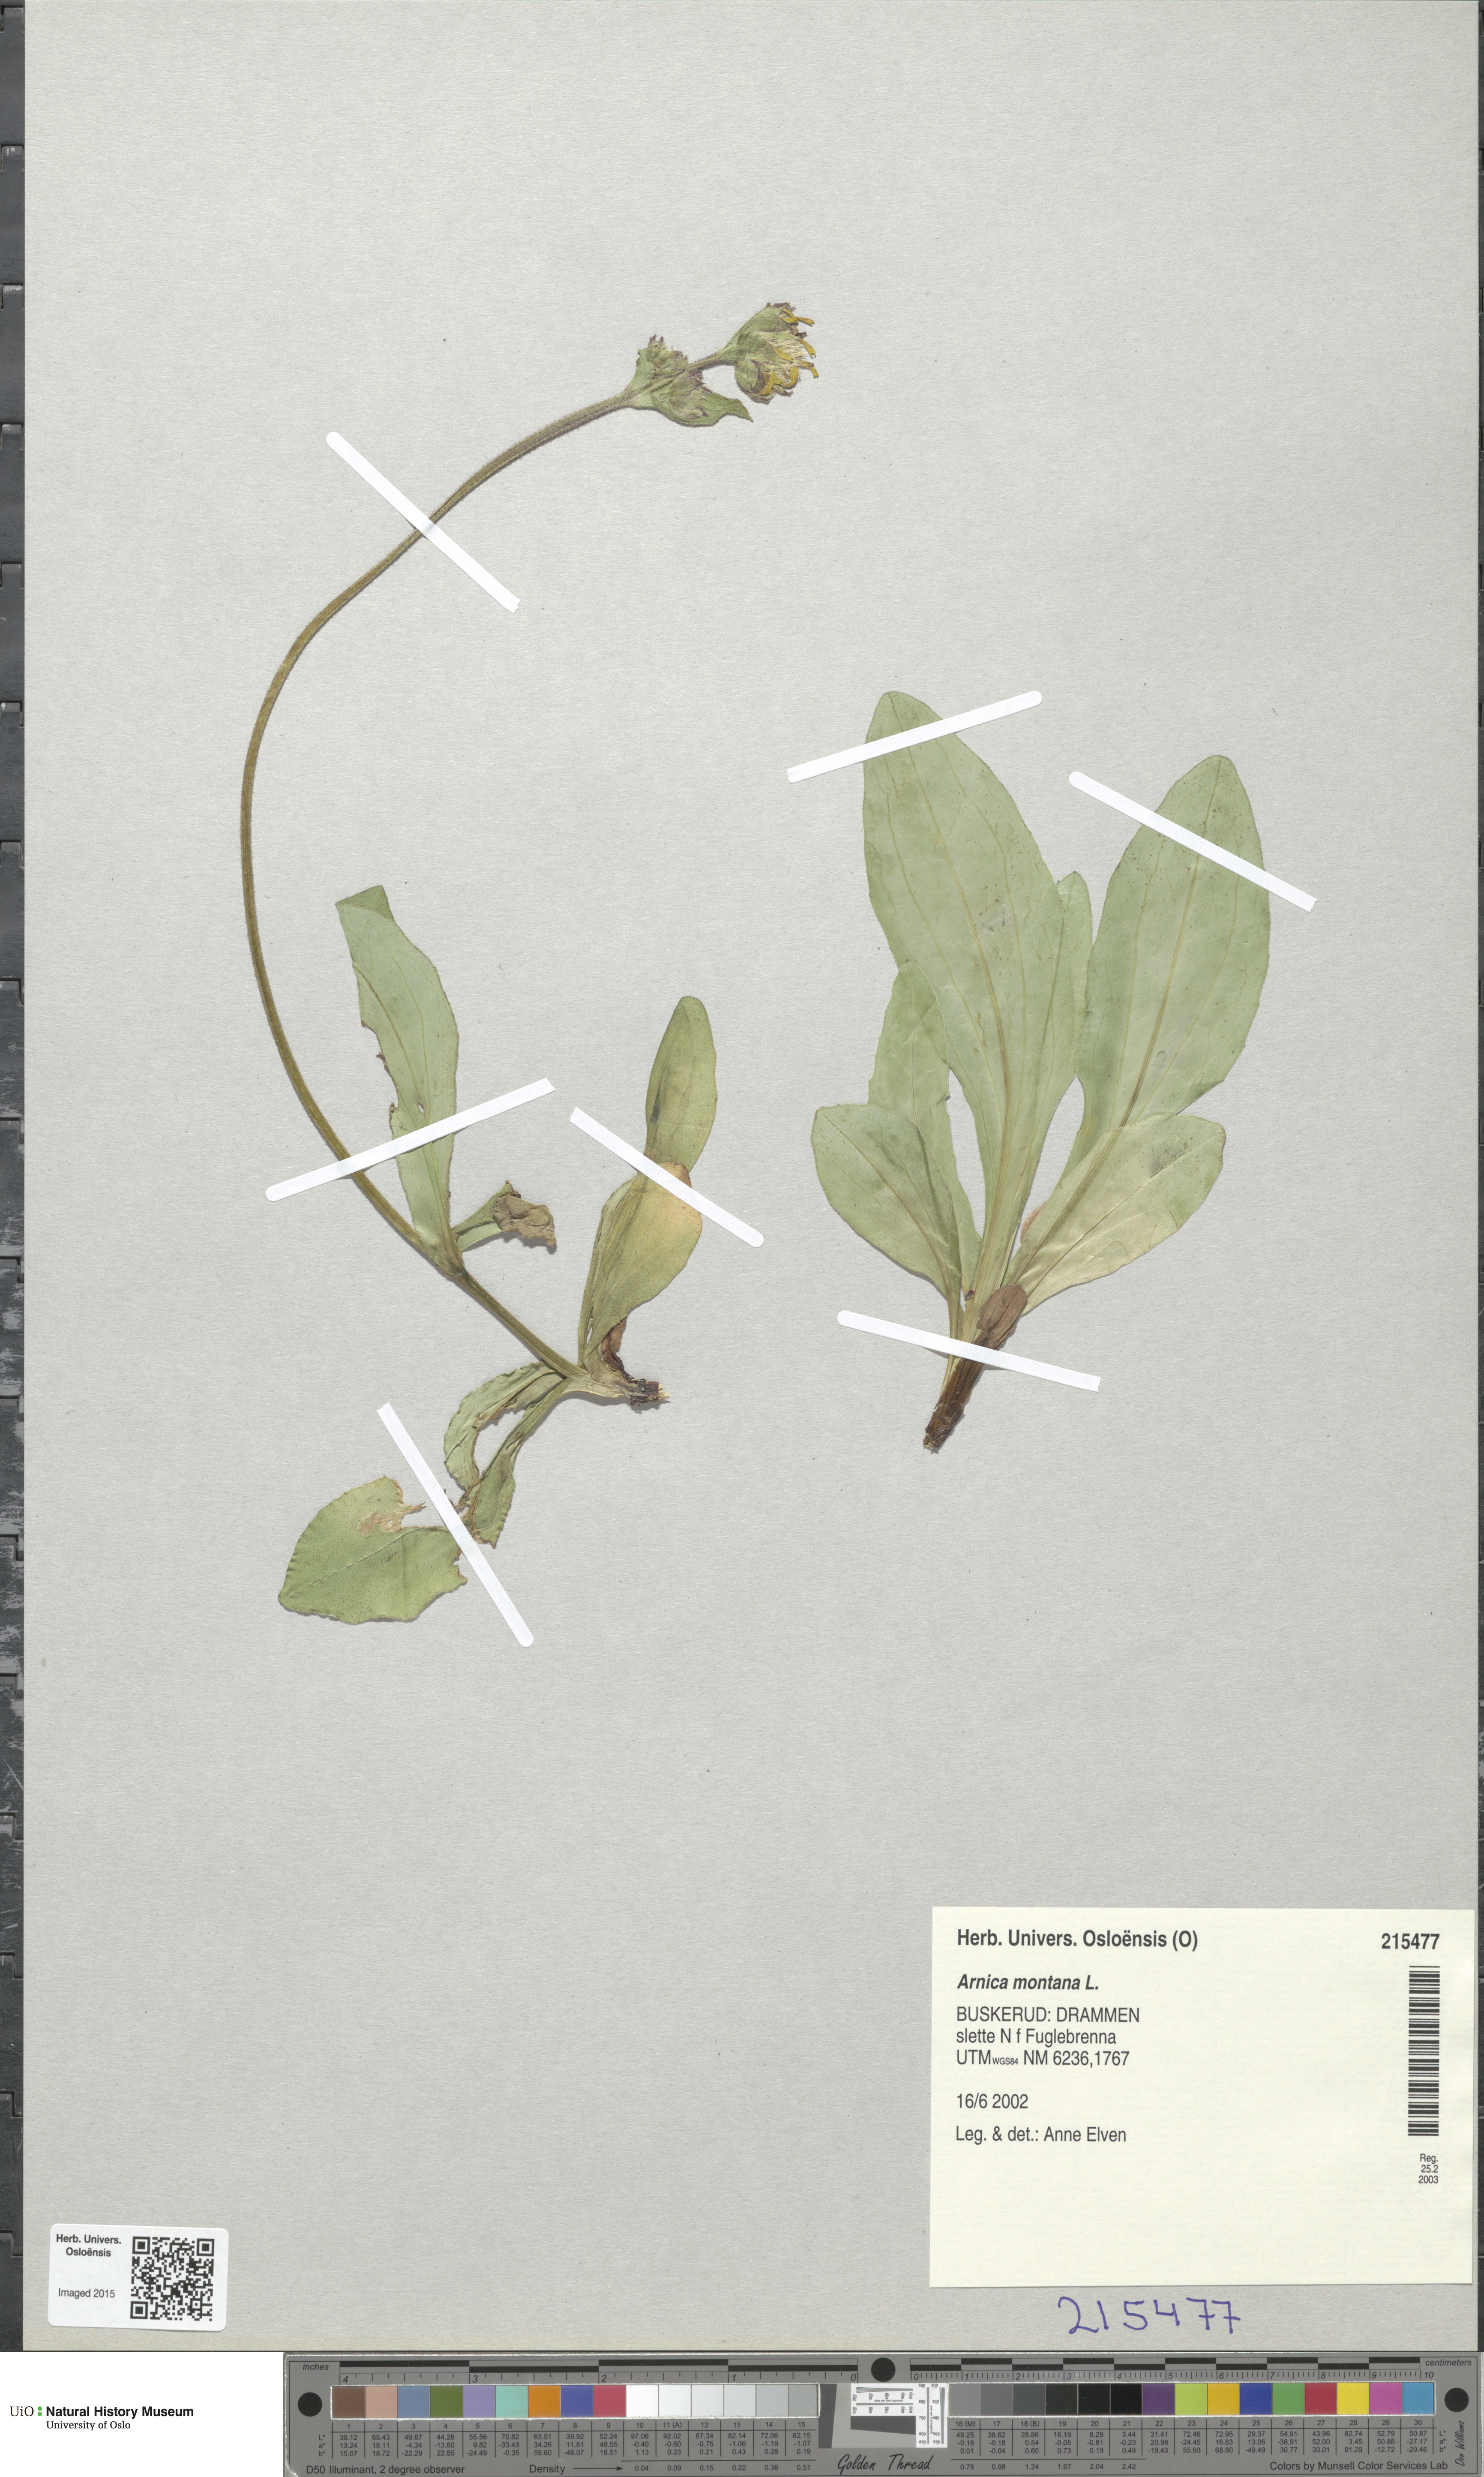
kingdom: Plantae
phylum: Tracheophyta
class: Magnoliopsida
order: Asterales
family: Asteraceae
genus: Arnica
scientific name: Arnica montana
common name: Leopard's bane
